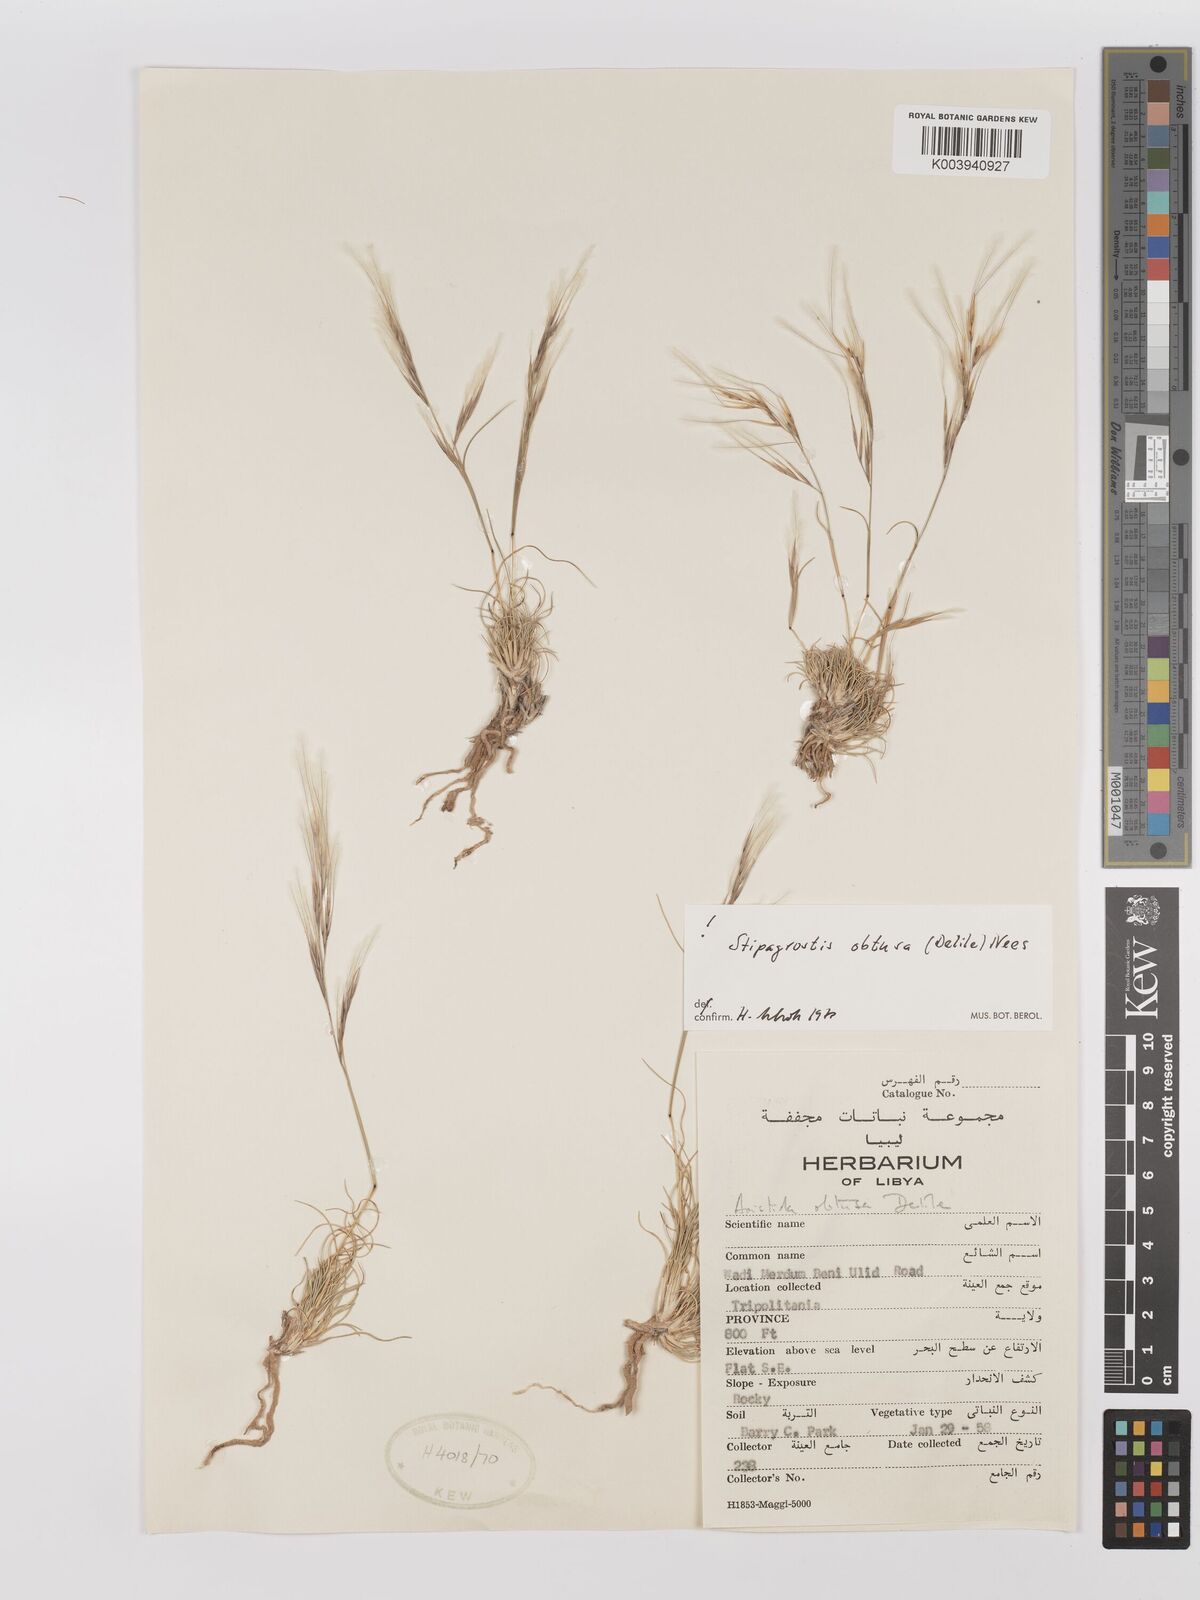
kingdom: Plantae
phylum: Tracheophyta
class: Liliopsida
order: Poales
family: Poaceae
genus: Stipagrostis
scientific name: Stipagrostis obtusa
